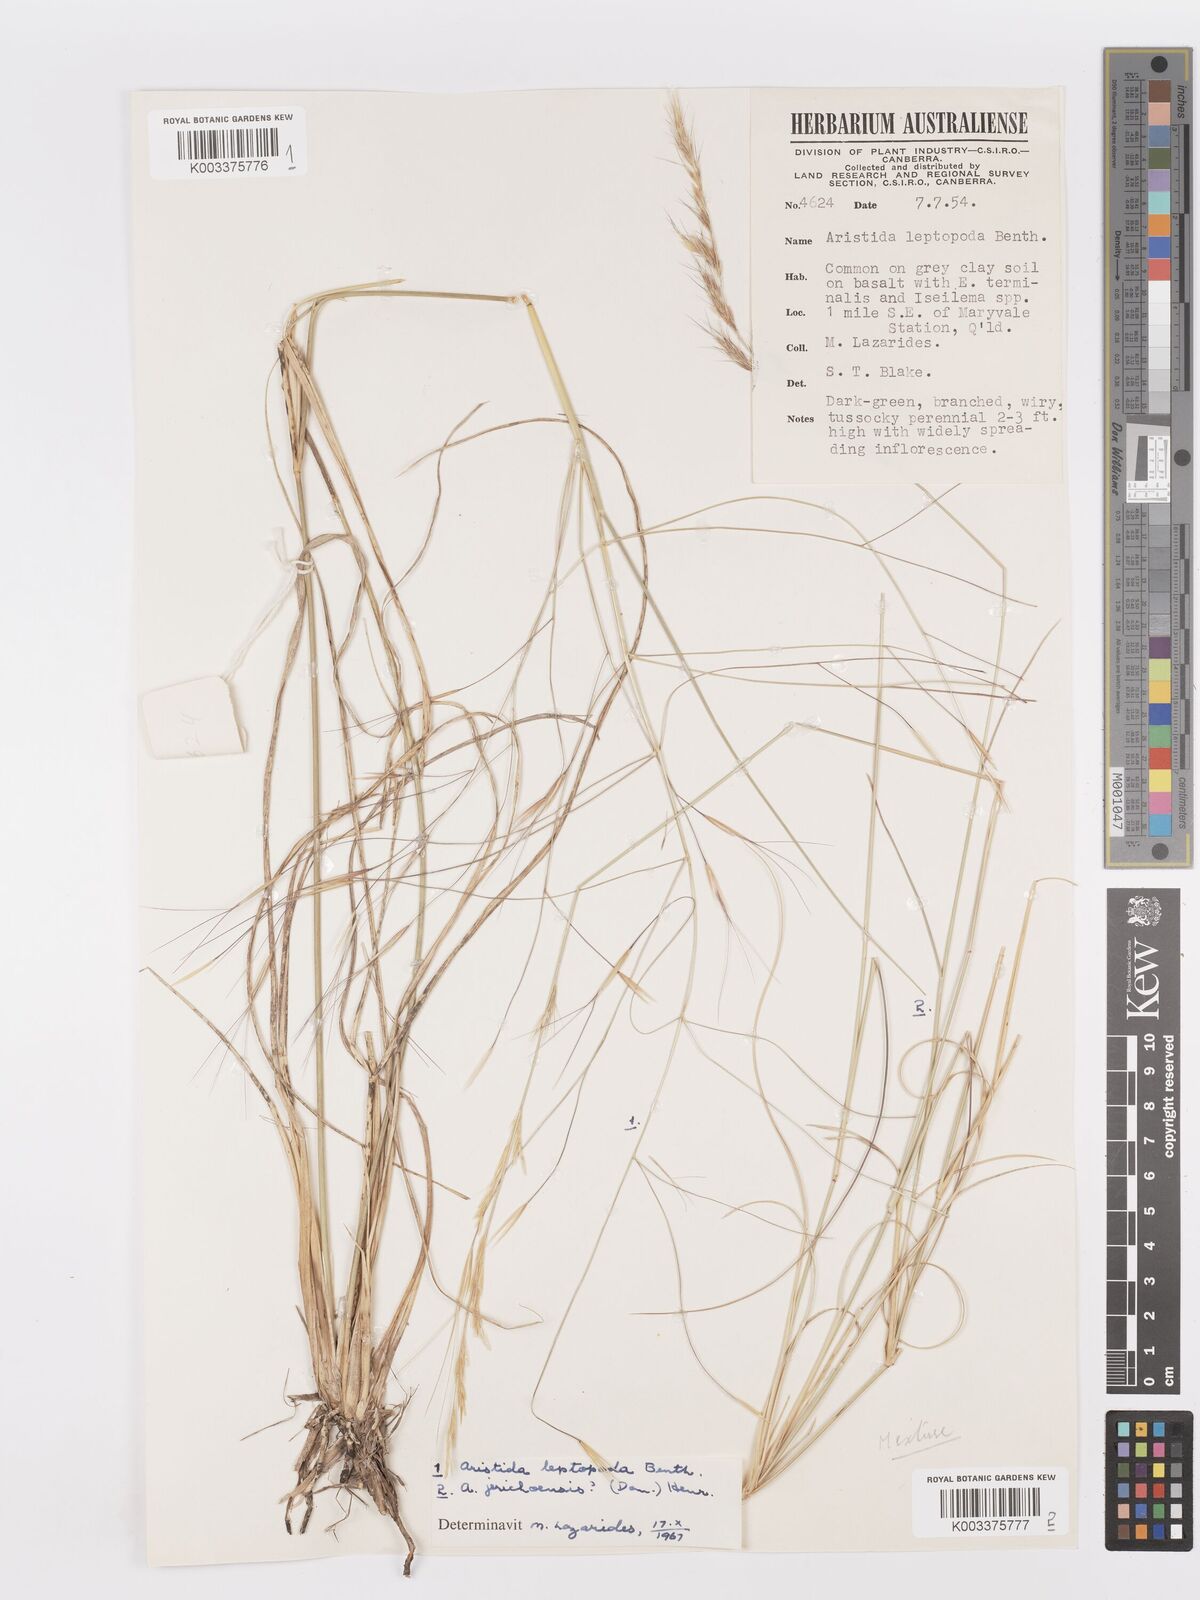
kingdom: Plantae
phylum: Tracheophyta
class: Liliopsida
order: Poales
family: Poaceae
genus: Aristida
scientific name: Aristida
